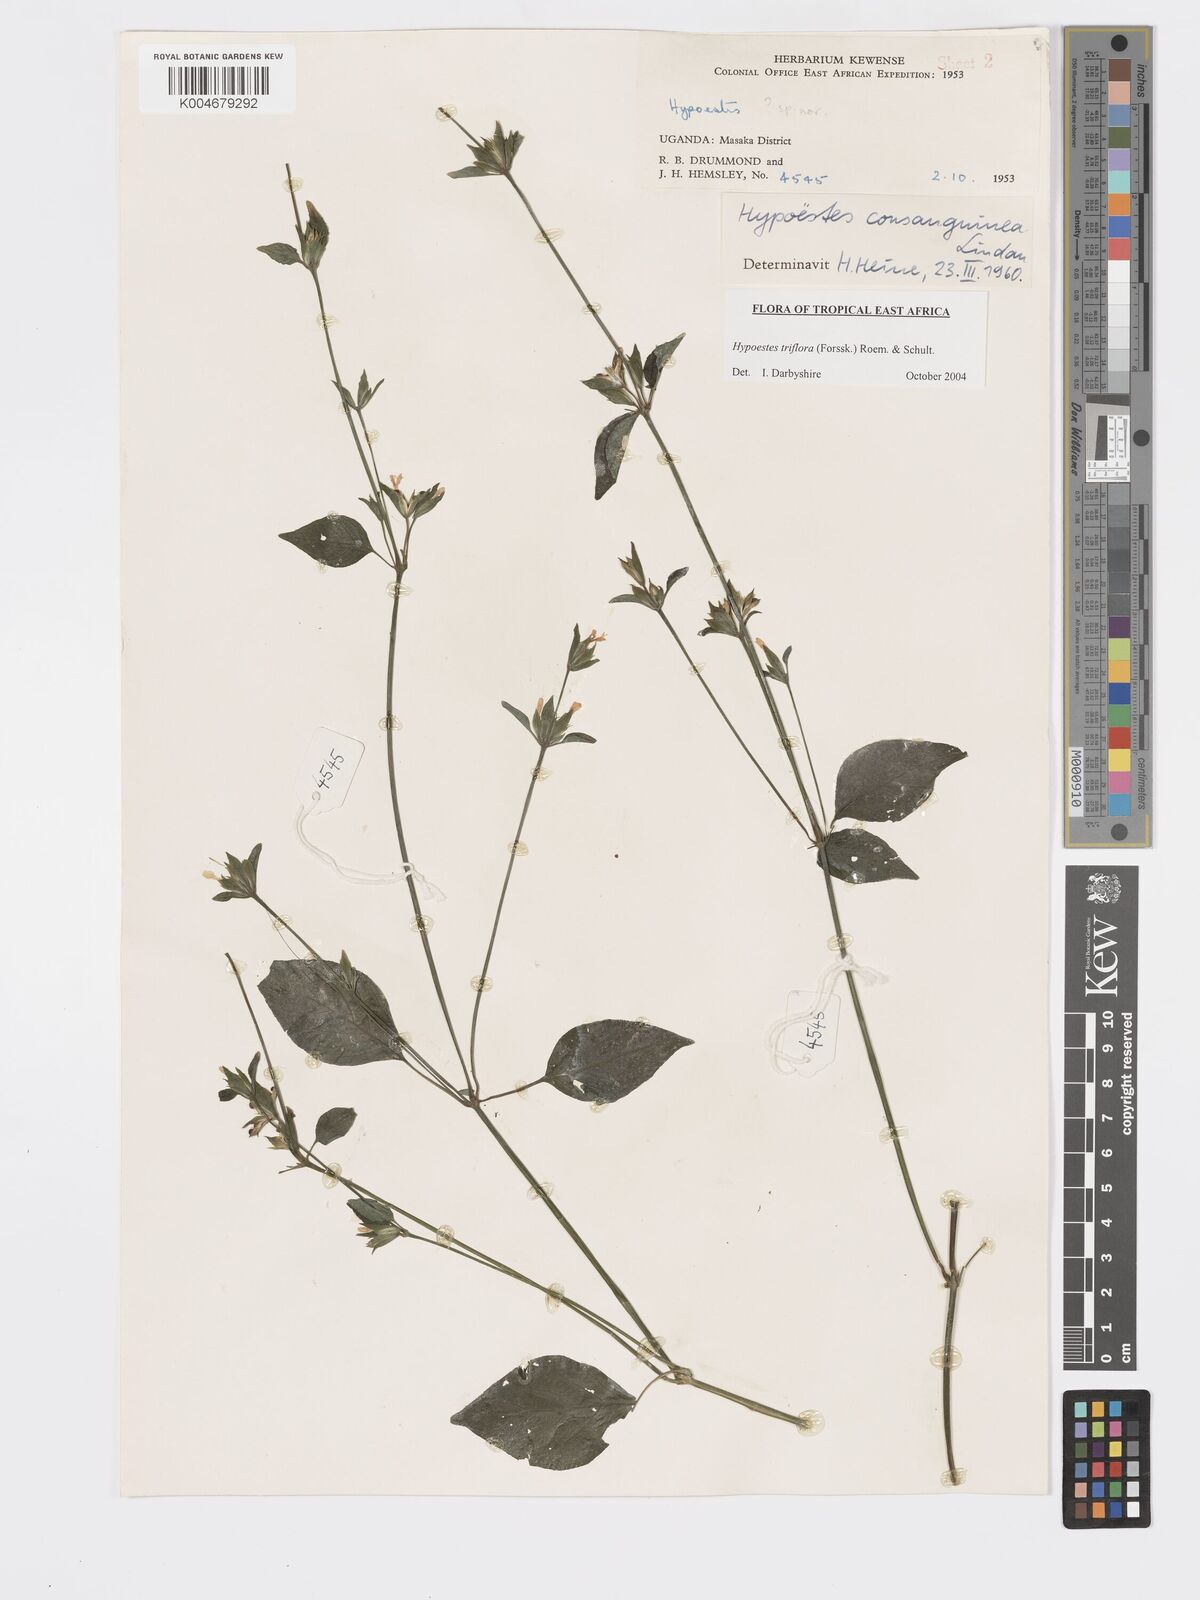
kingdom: Plantae
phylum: Tracheophyta
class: Magnoliopsida
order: Lamiales
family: Acanthaceae
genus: Hypoestes
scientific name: Hypoestes triflora
